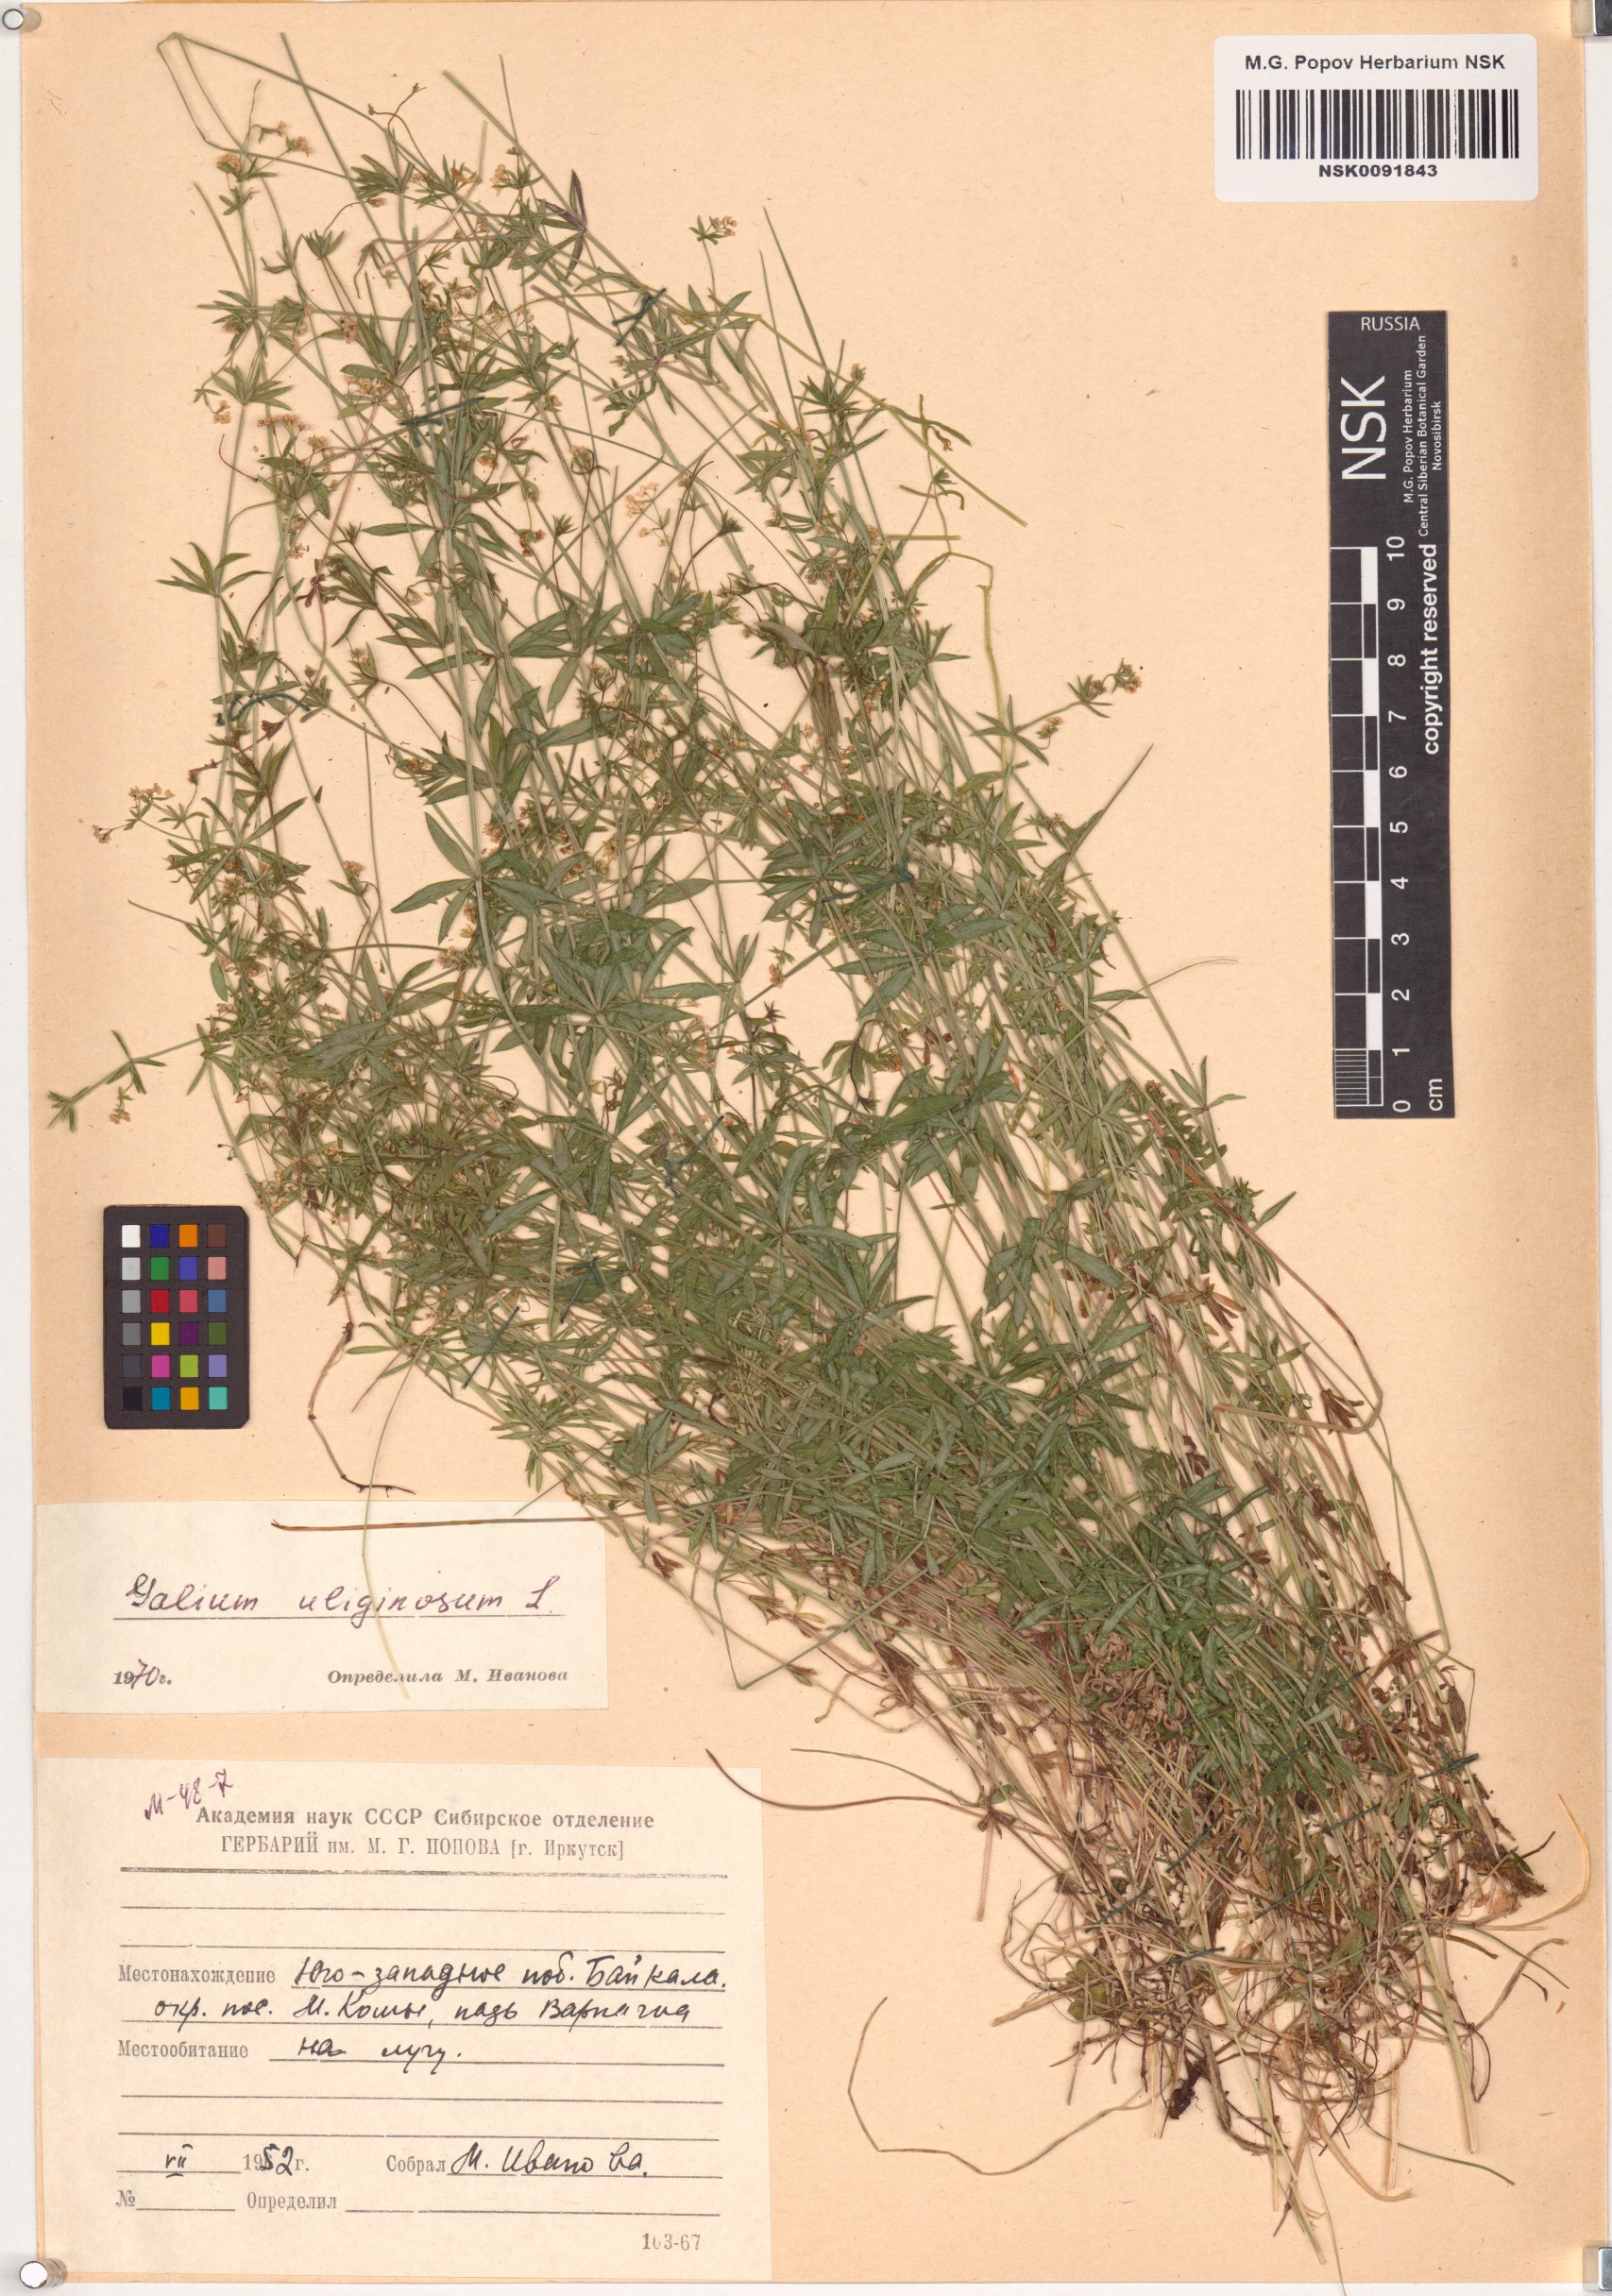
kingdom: Plantae
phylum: Tracheophyta
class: Magnoliopsida
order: Gentianales
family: Rubiaceae
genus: Galium
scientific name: Galium uliginosum
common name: Fen bedstraw
